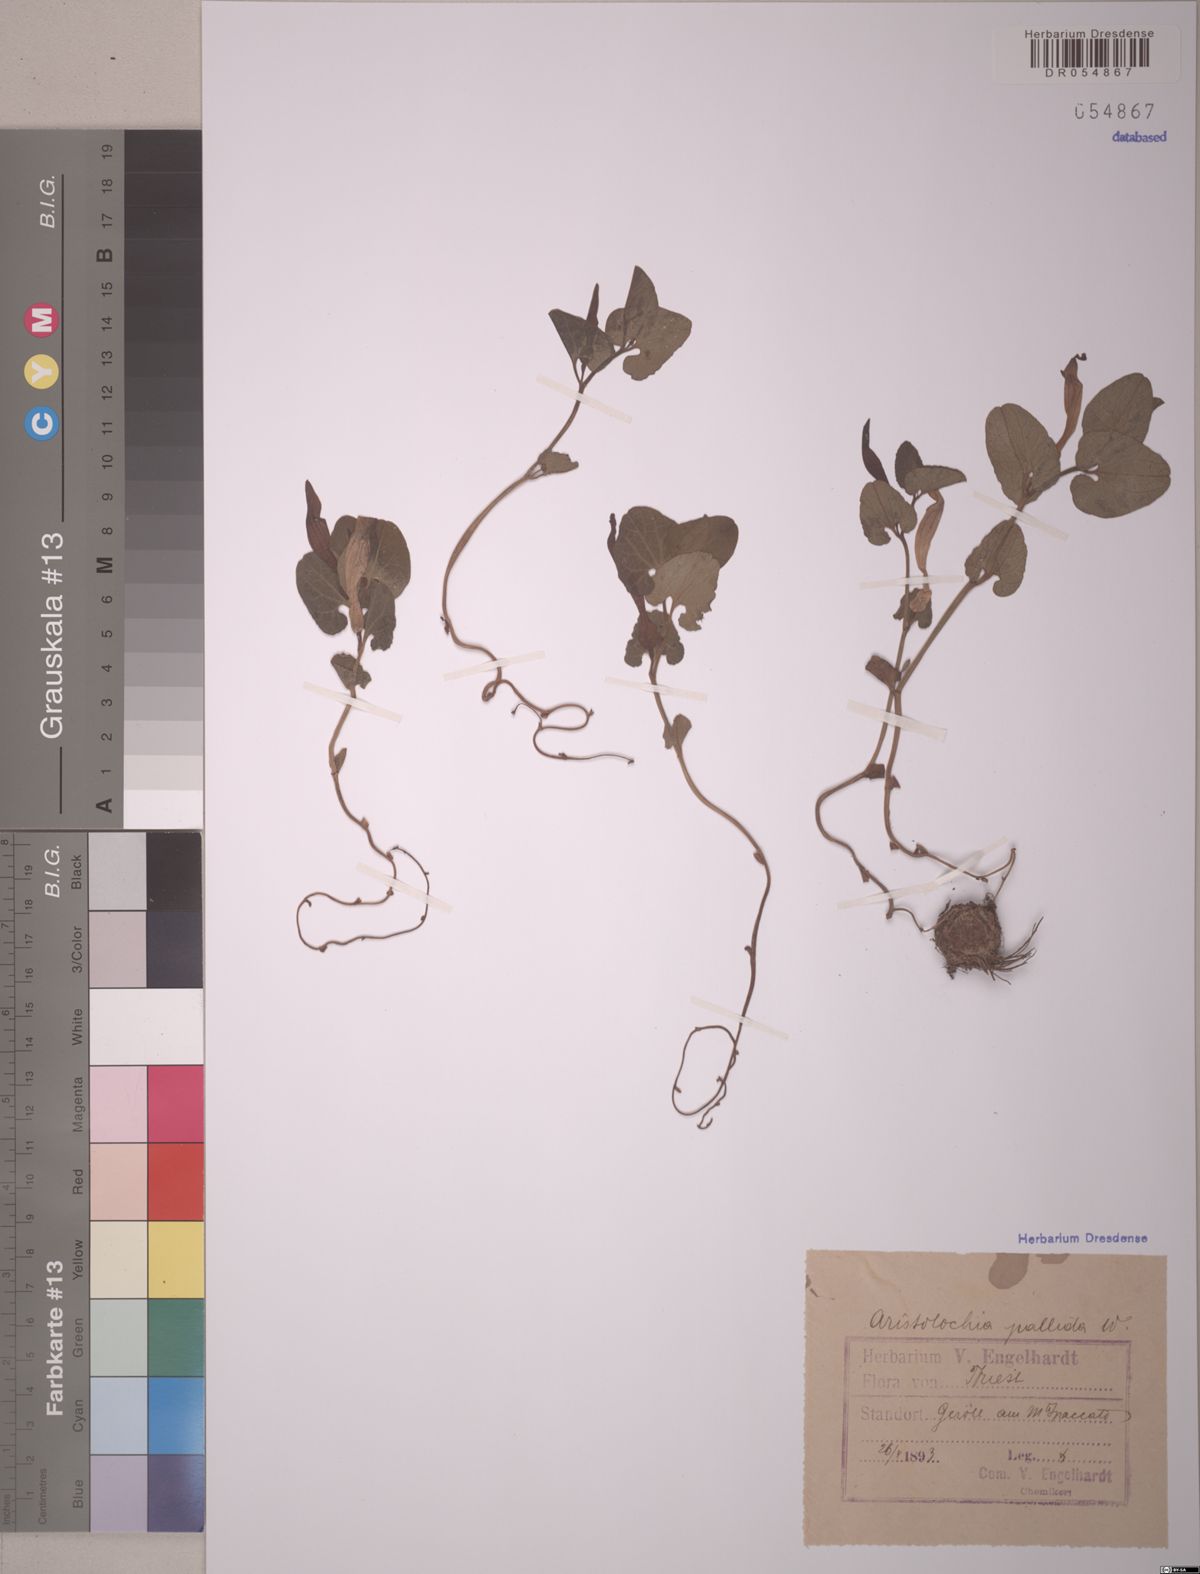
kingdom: Plantae
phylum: Tracheophyta
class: Magnoliopsida
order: Piperales
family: Aristolochiaceae
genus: Aristolochia
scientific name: Aristolochia pallida
